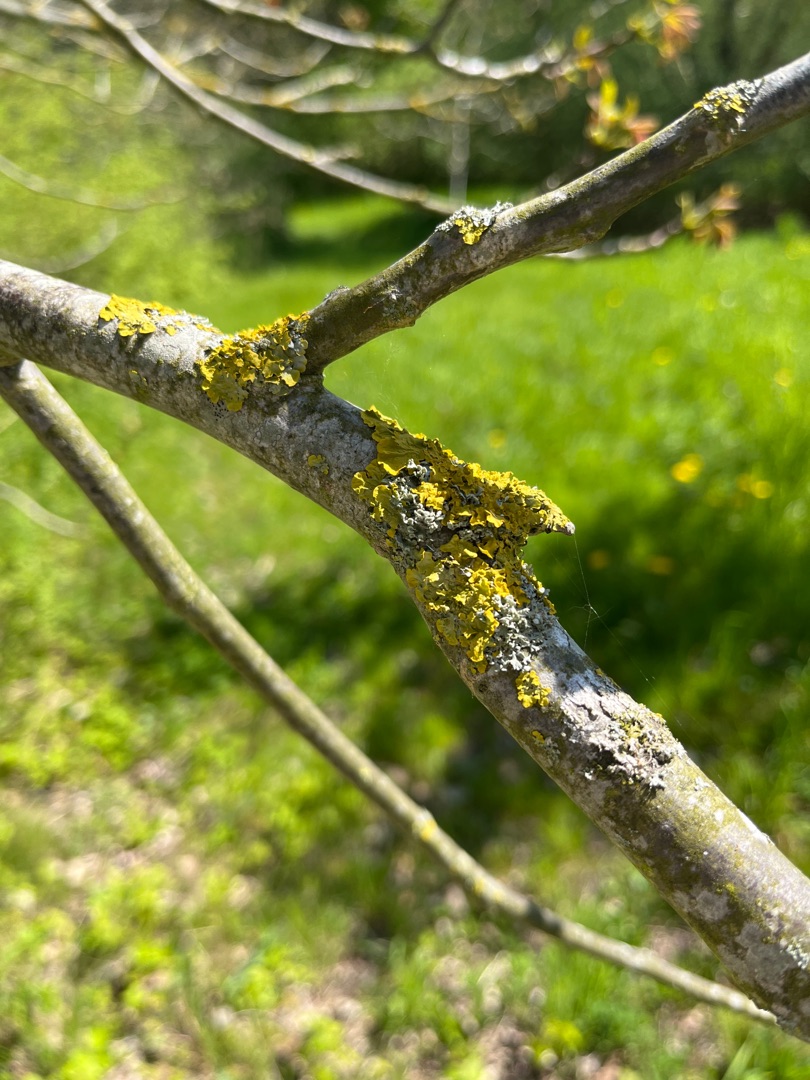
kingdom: Fungi
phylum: Ascomycota
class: Lecanoromycetes
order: Teloschistales
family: Teloschistaceae
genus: Xanthoria
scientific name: Xanthoria parietina
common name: Almindelig væggelav
